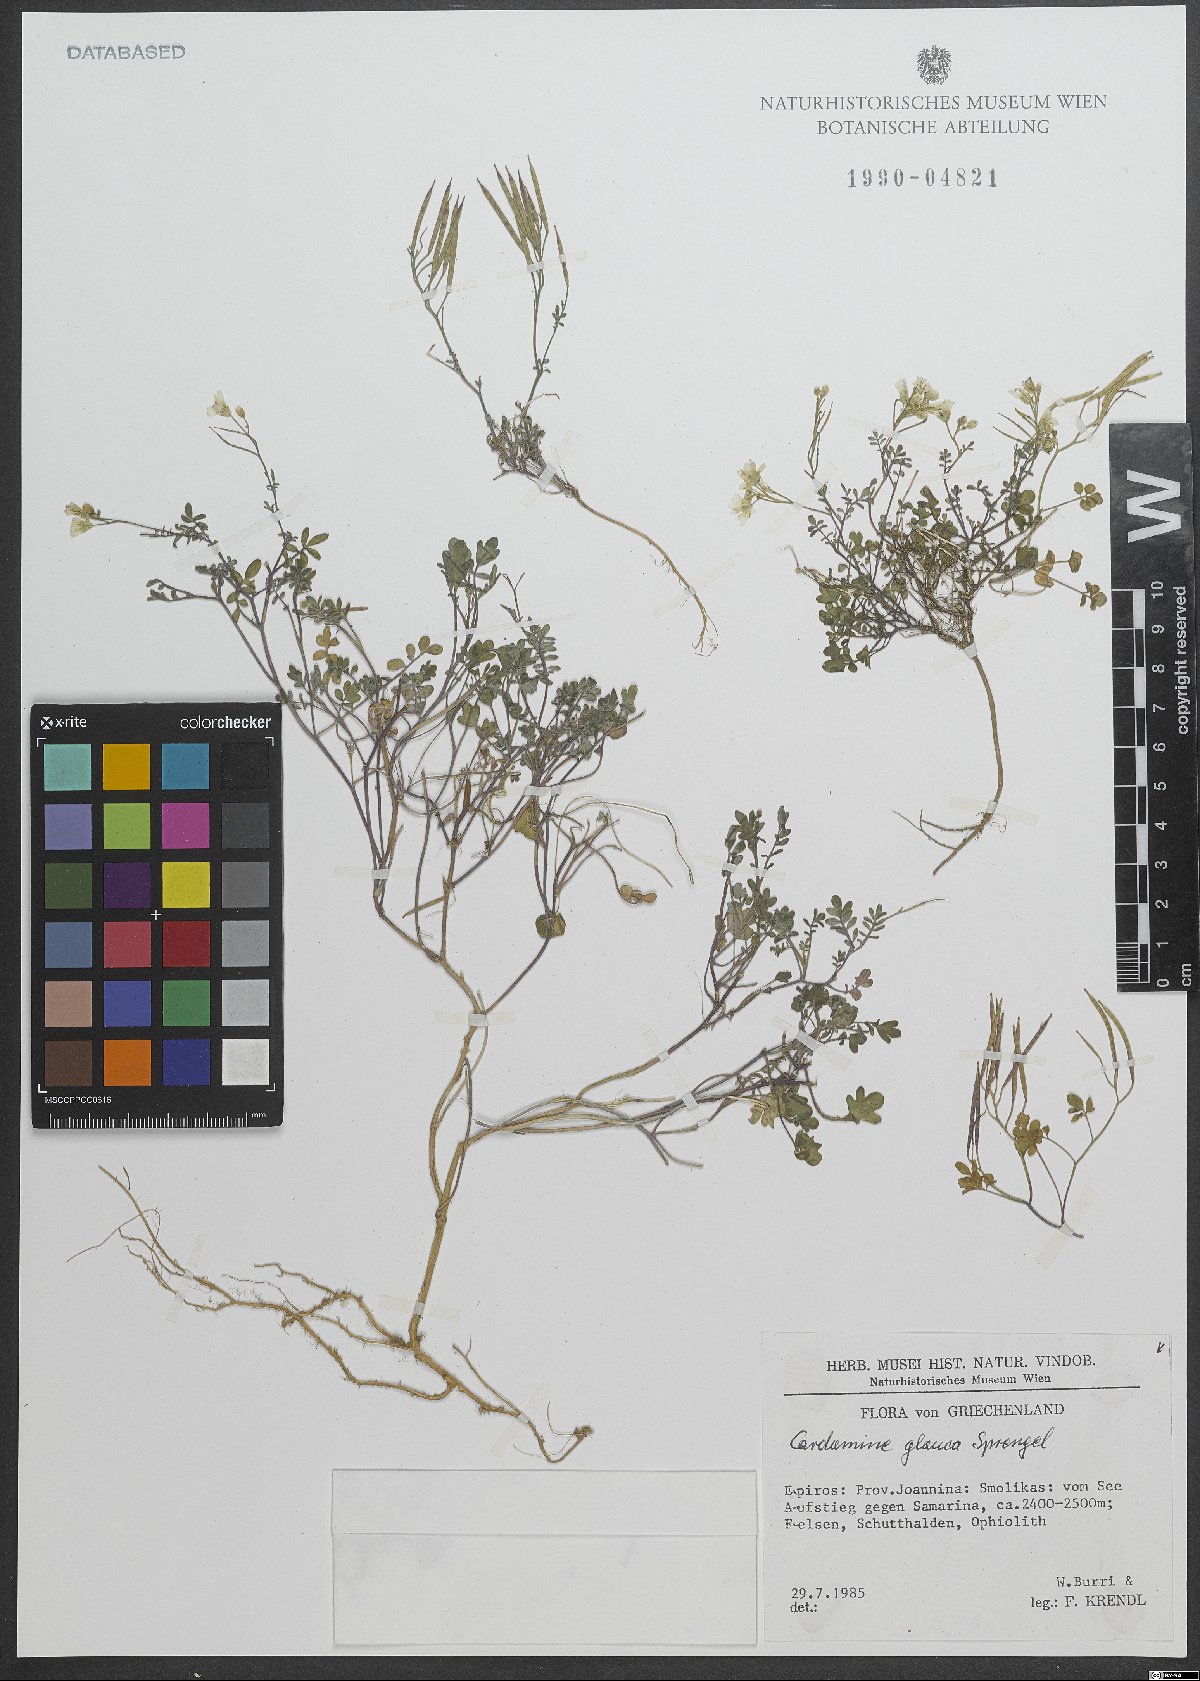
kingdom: Plantae
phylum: Tracheophyta
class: Magnoliopsida
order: Brassicales
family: Brassicaceae
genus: Cardamine
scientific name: Cardamine glauca
